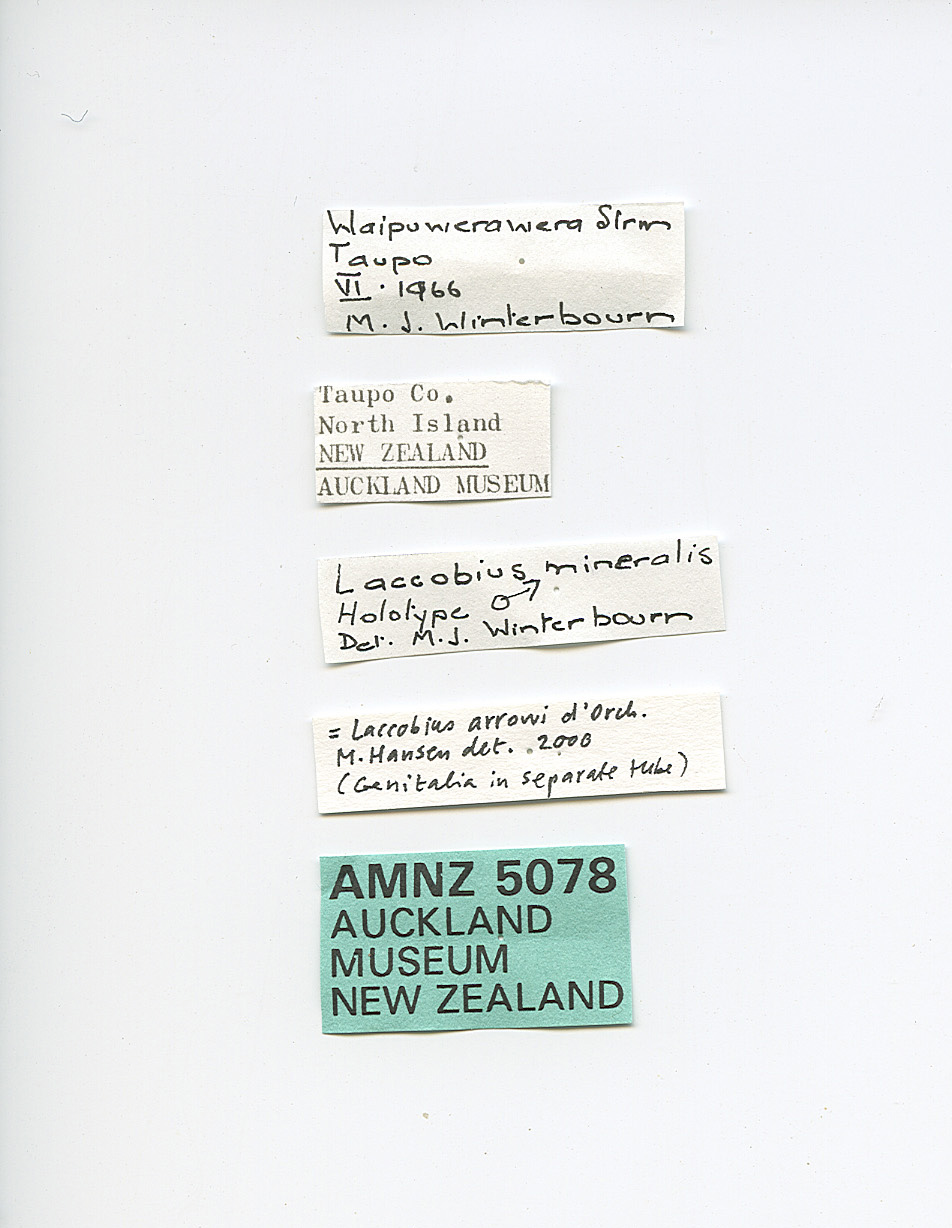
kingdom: Animalia
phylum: Arthropoda
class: Insecta
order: Coleoptera
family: Hydrophilidae
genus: Laccobius
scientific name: Laccobius arrowi
